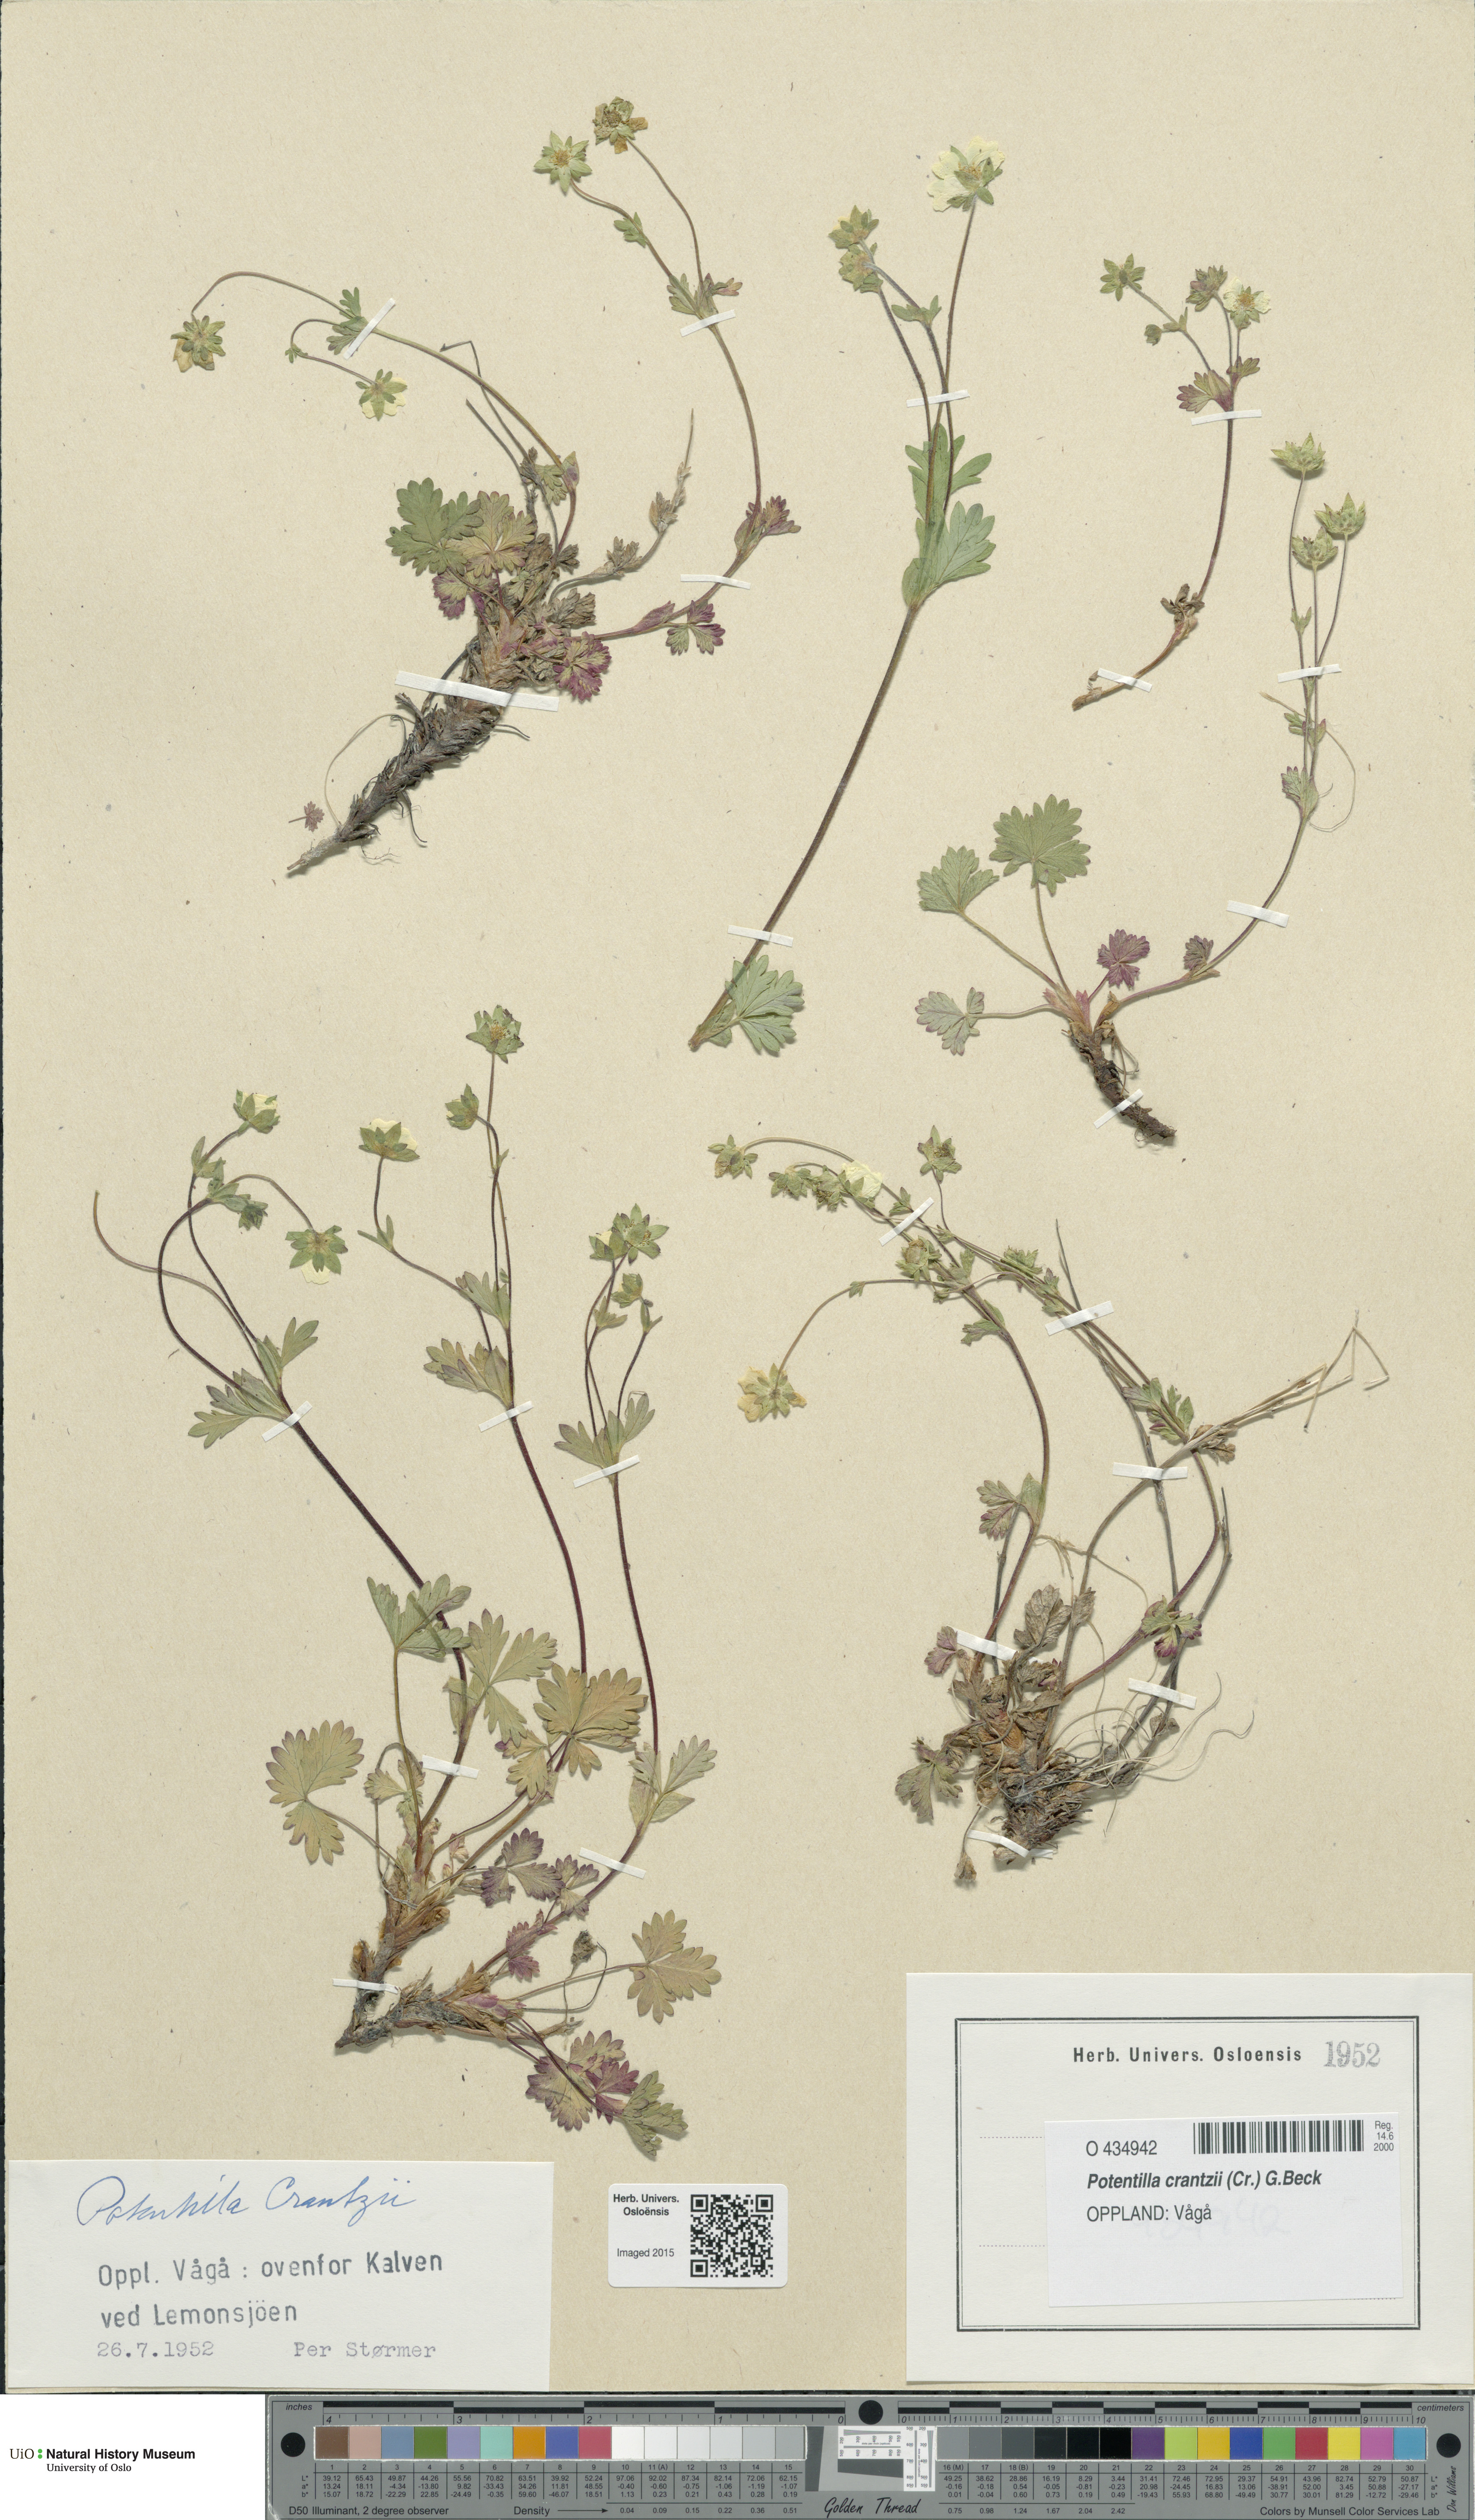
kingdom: Plantae
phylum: Tracheophyta
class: Magnoliopsida
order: Rosales
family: Rosaceae
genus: Potentilla
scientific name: Potentilla crantzii
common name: Alpine cinquefoil
